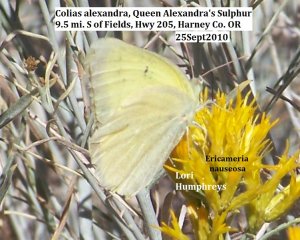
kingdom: Animalia
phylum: Arthropoda
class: Insecta
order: Lepidoptera
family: Pieridae
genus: Colias
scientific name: Colias alexandra
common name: Queen Alexandra's Sulphur
